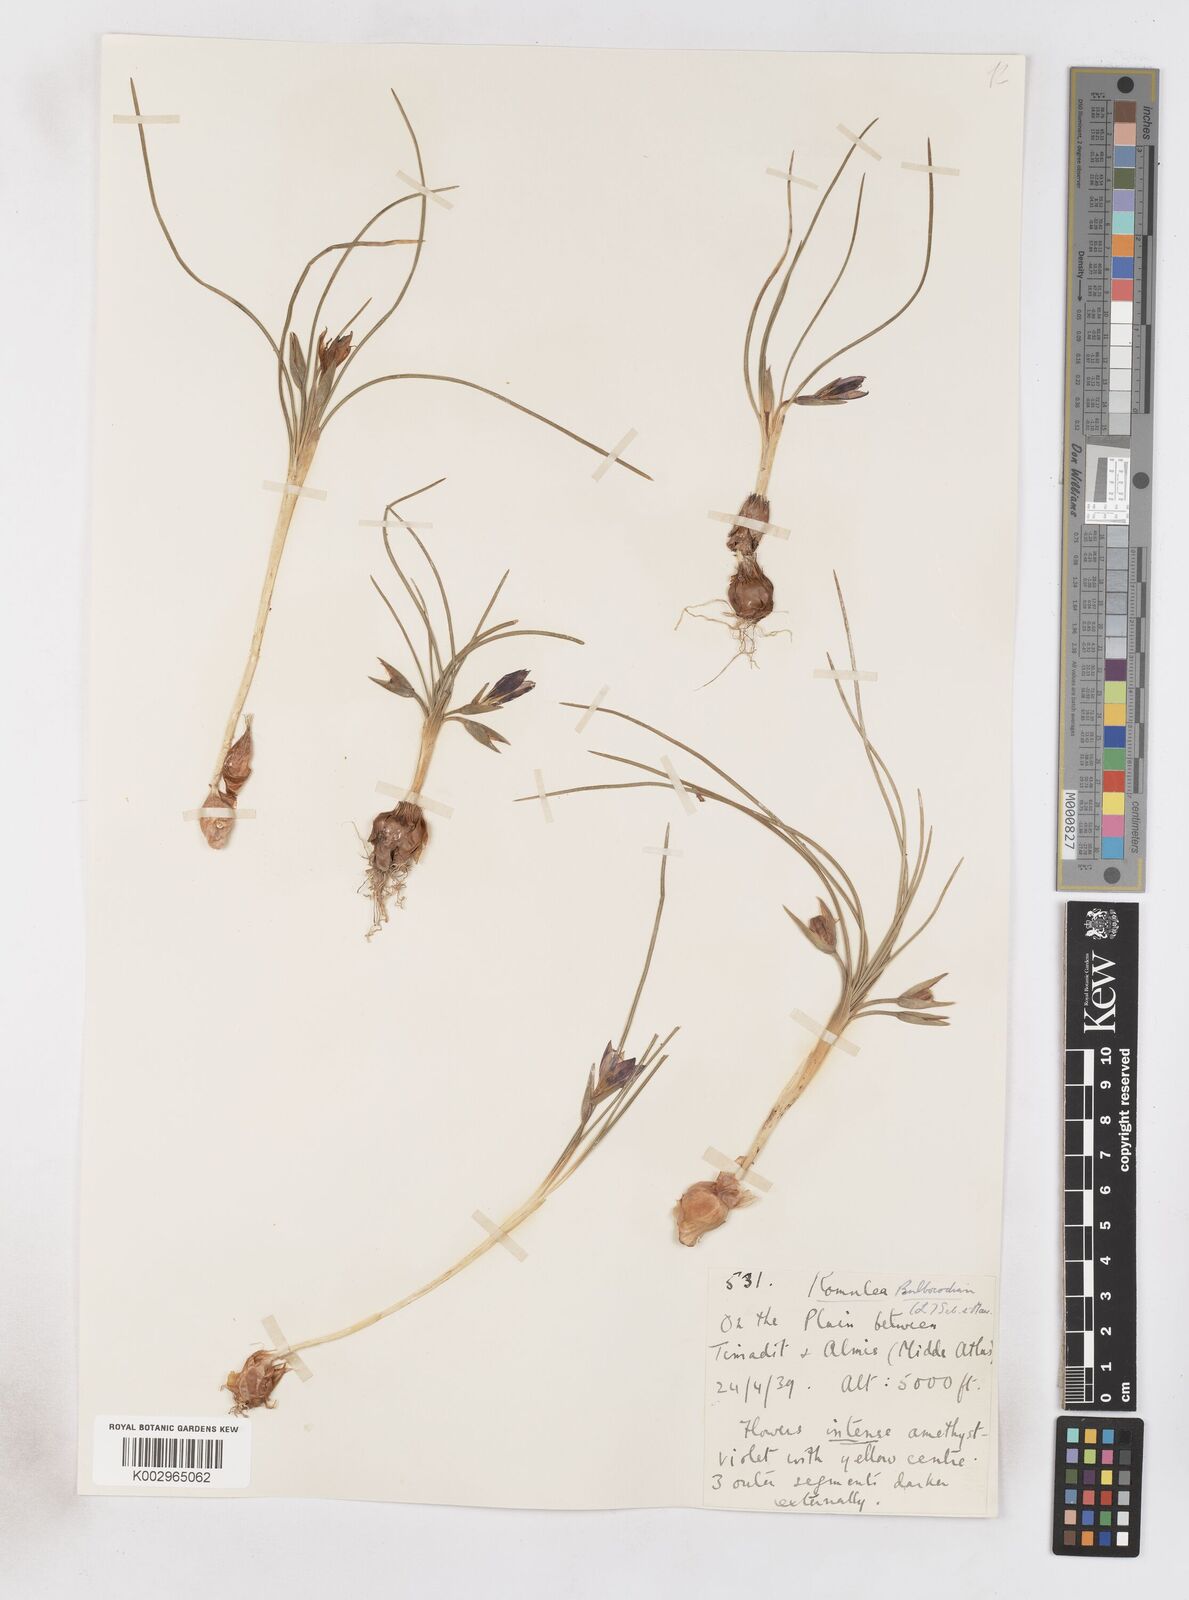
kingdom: Plantae
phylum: Tracheophyta
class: Liliopsida
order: Asparagales
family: Iridaceae
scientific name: Iridaceae
